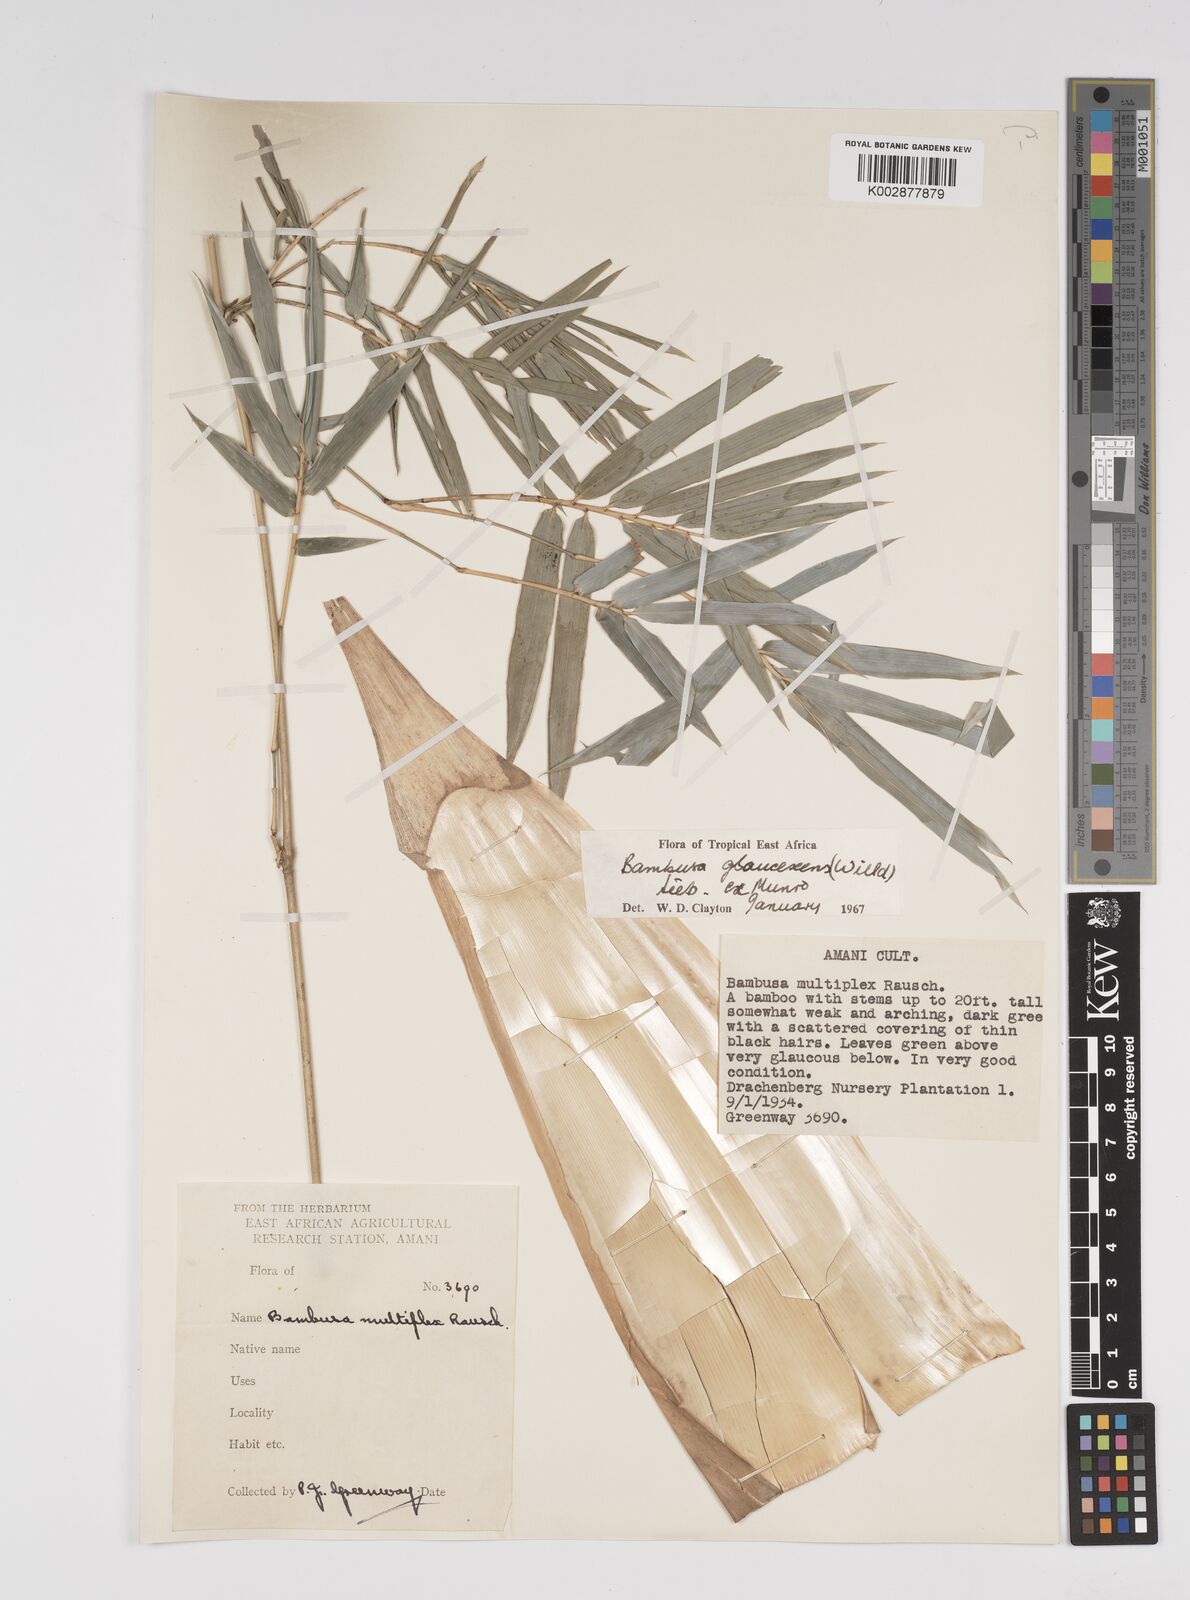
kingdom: Plantae
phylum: Tracheophyta
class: Liliopsida
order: Poales
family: Poaceae
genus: Bambusa
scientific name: Bambusa multiplex
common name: Hedge bamboo
